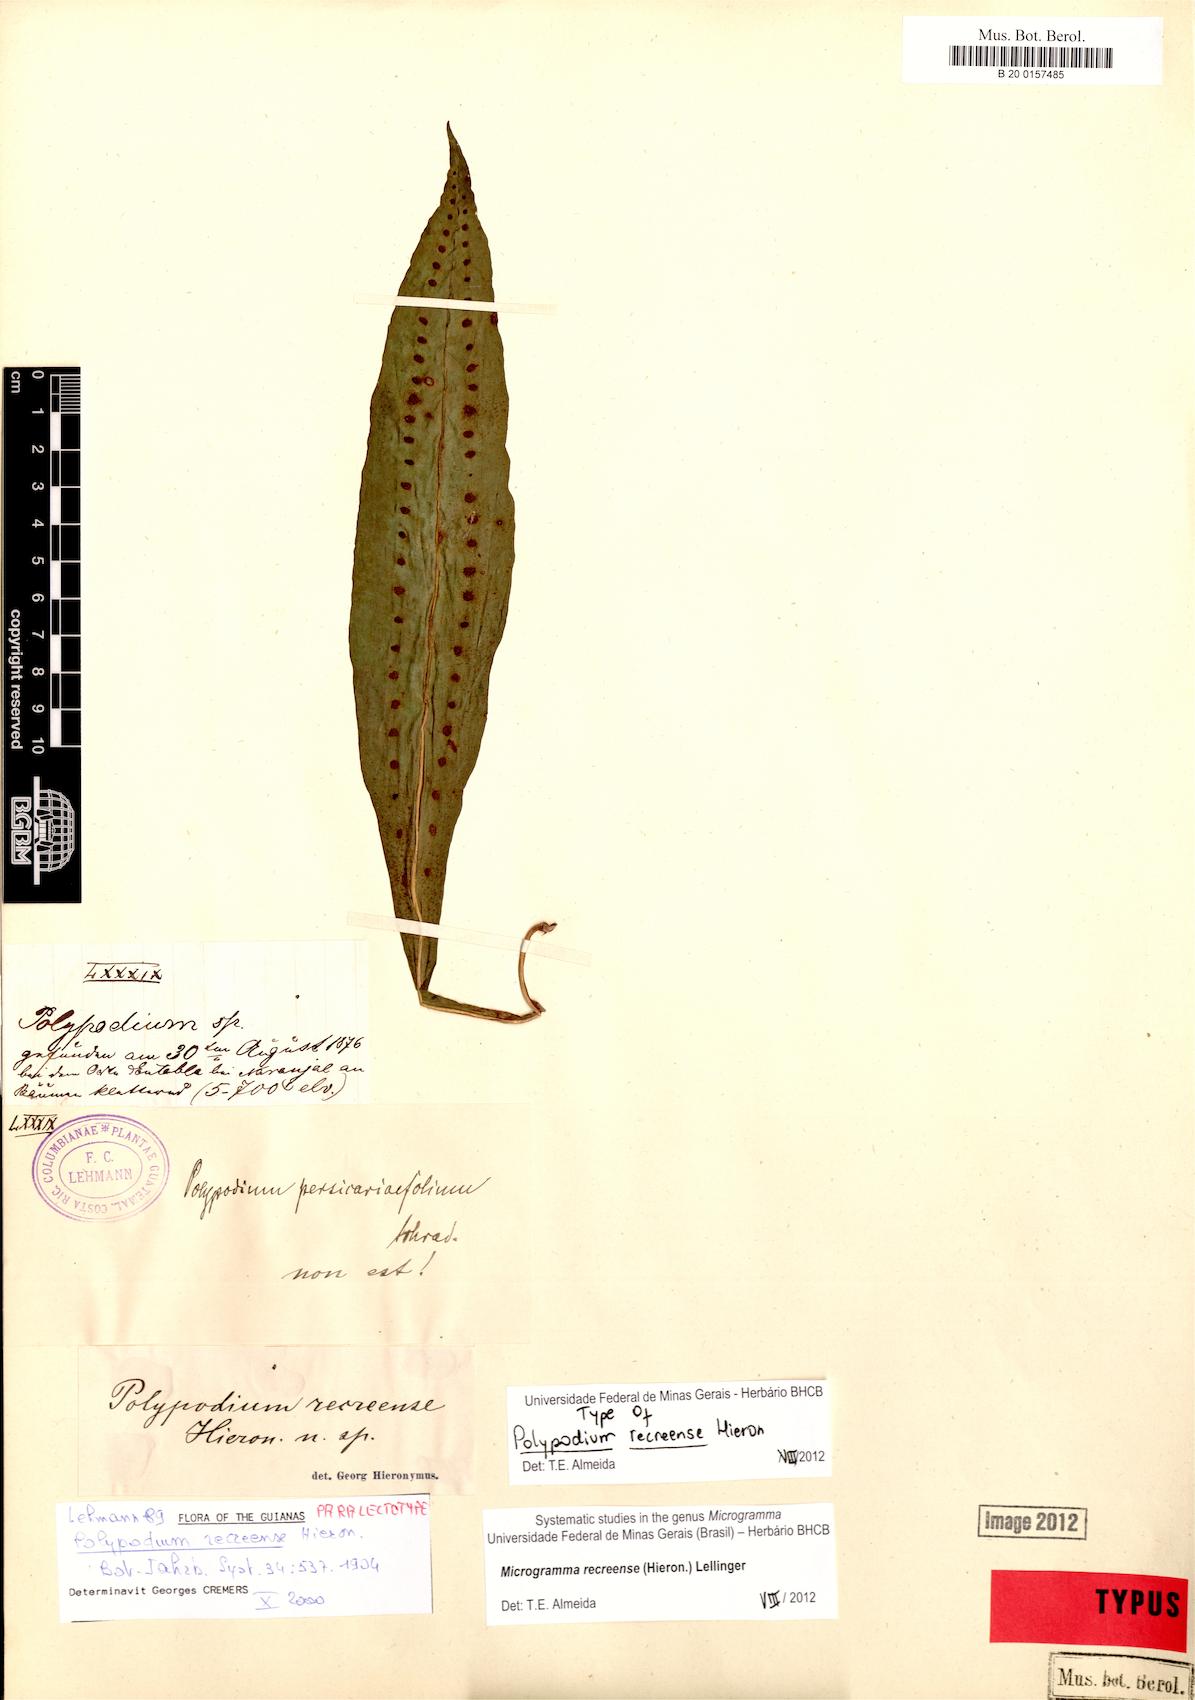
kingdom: Plantae
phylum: Tracheophyta
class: Polypodiopsida
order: Polypodiales
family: Polypodiaceae
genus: Microgramma
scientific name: Microgramma recreense
